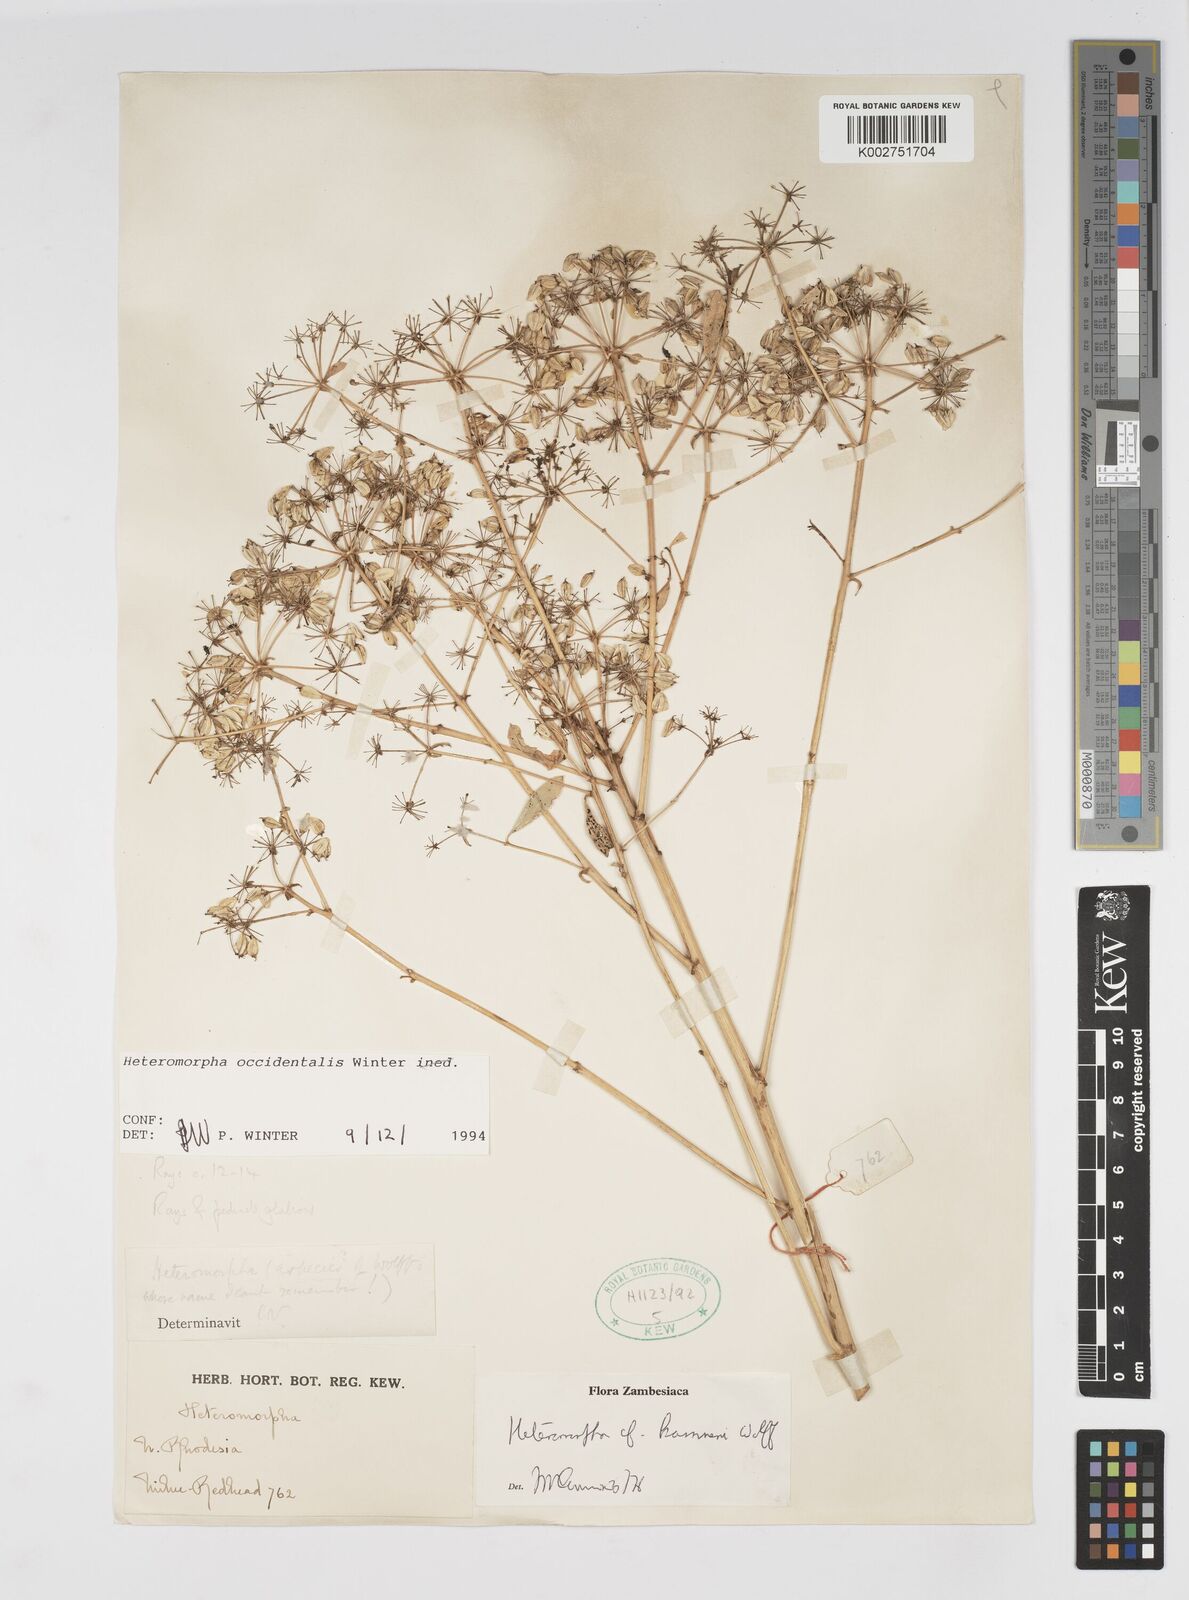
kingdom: Plantae
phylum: Tracheophyta
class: Magnoliopsida
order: Apiales
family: Apiaceae
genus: Heteromorpha
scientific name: Heteromorpha occidentalis
